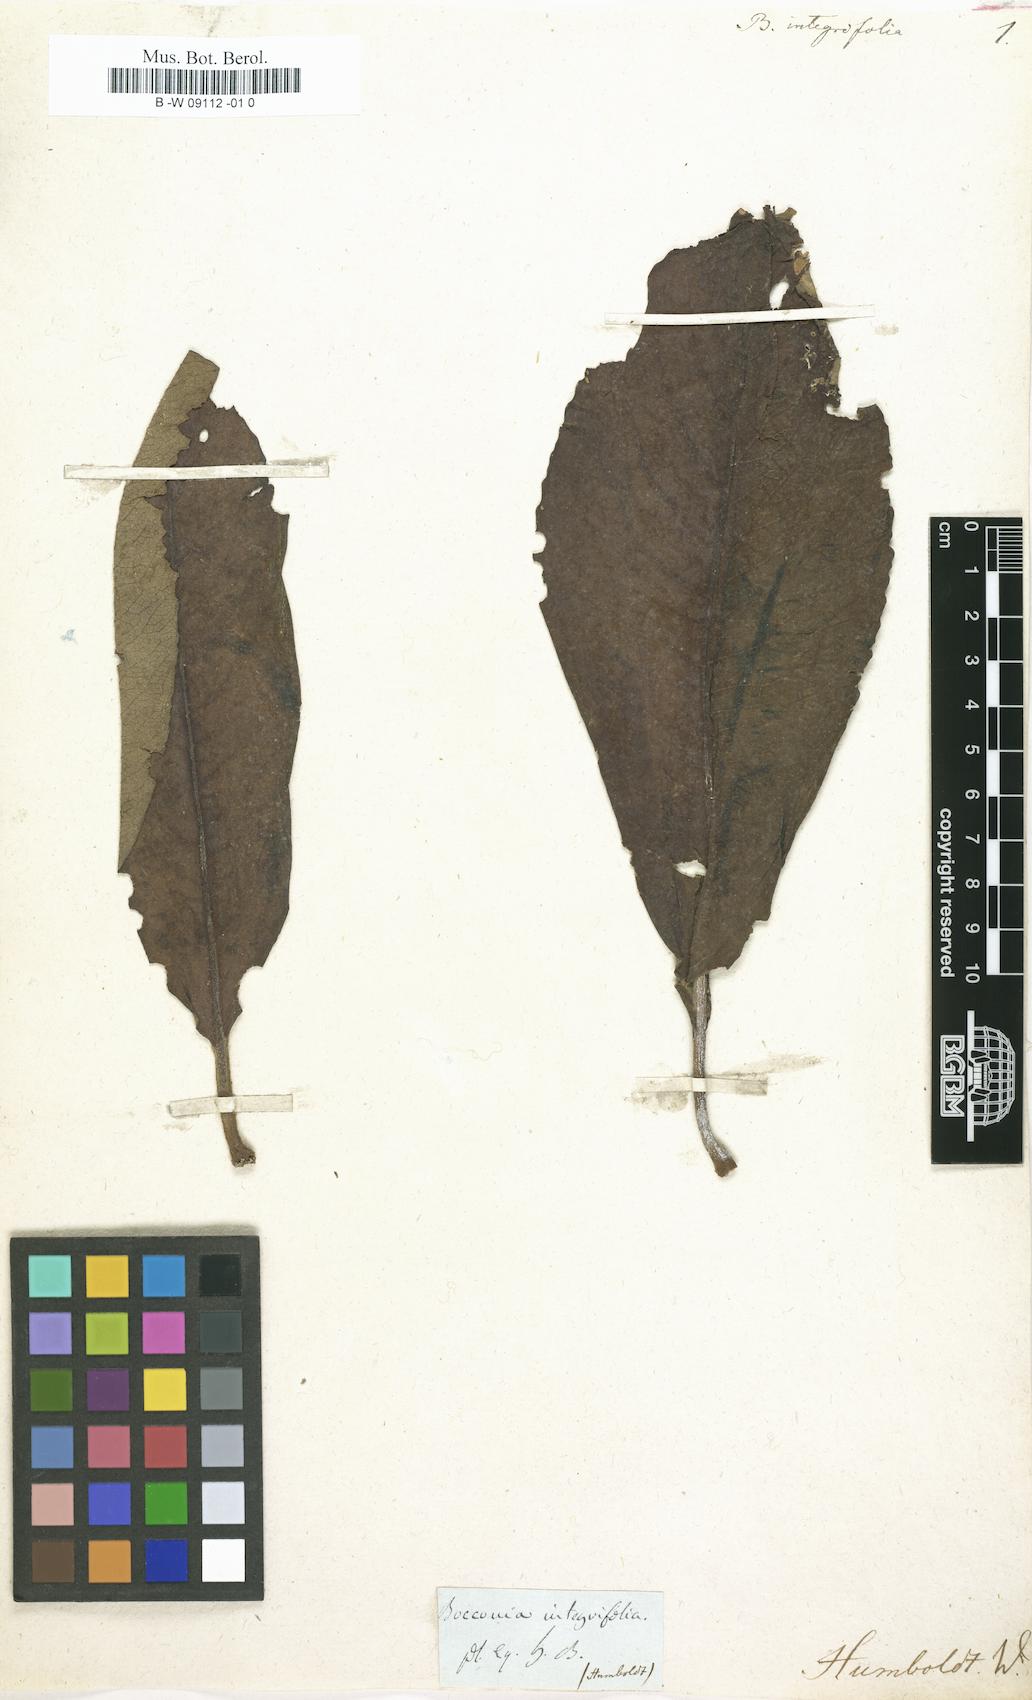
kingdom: Plantae
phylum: Tracheophyta
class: Magnoliopsida
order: Ranunculales
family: Papaveraceae
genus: Bocconia
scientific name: Bocconia integrifolia
